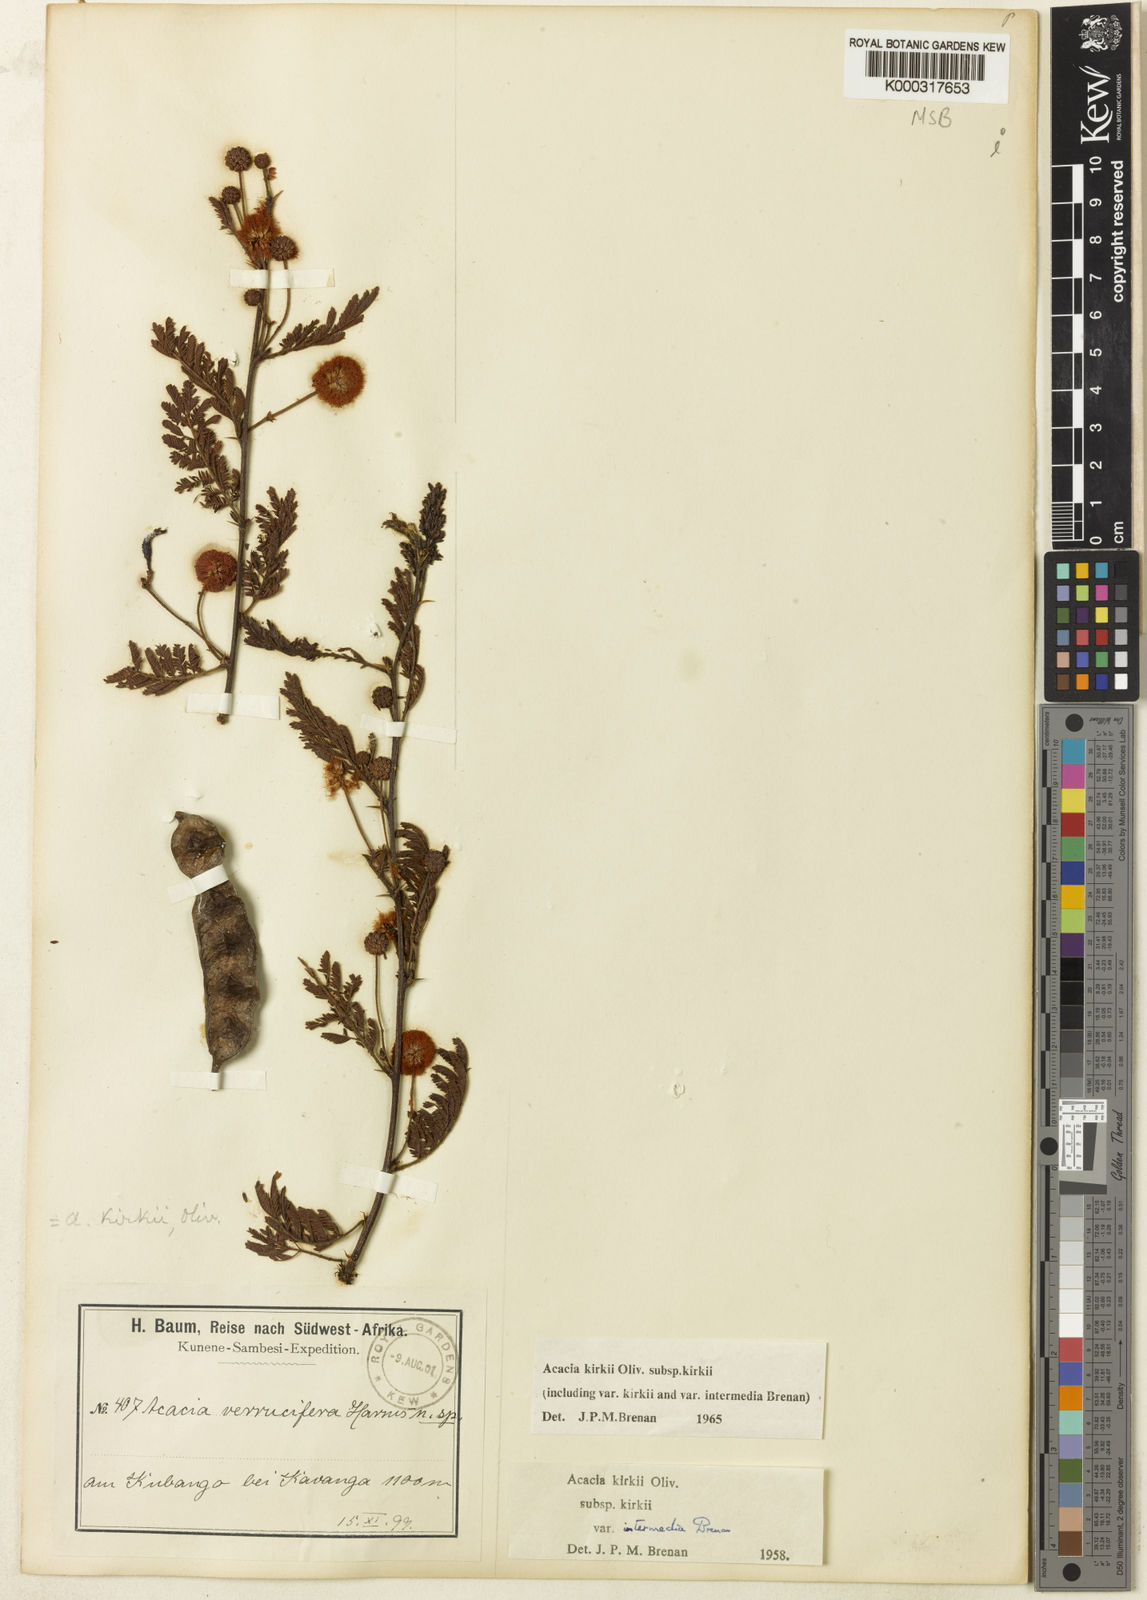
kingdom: Plantae
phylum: Tracheophyta
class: Magnoliopsida
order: Fabales
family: Fabaceae
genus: Vachellia
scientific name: Vachellia kirkii
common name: Flood-plain acacia
